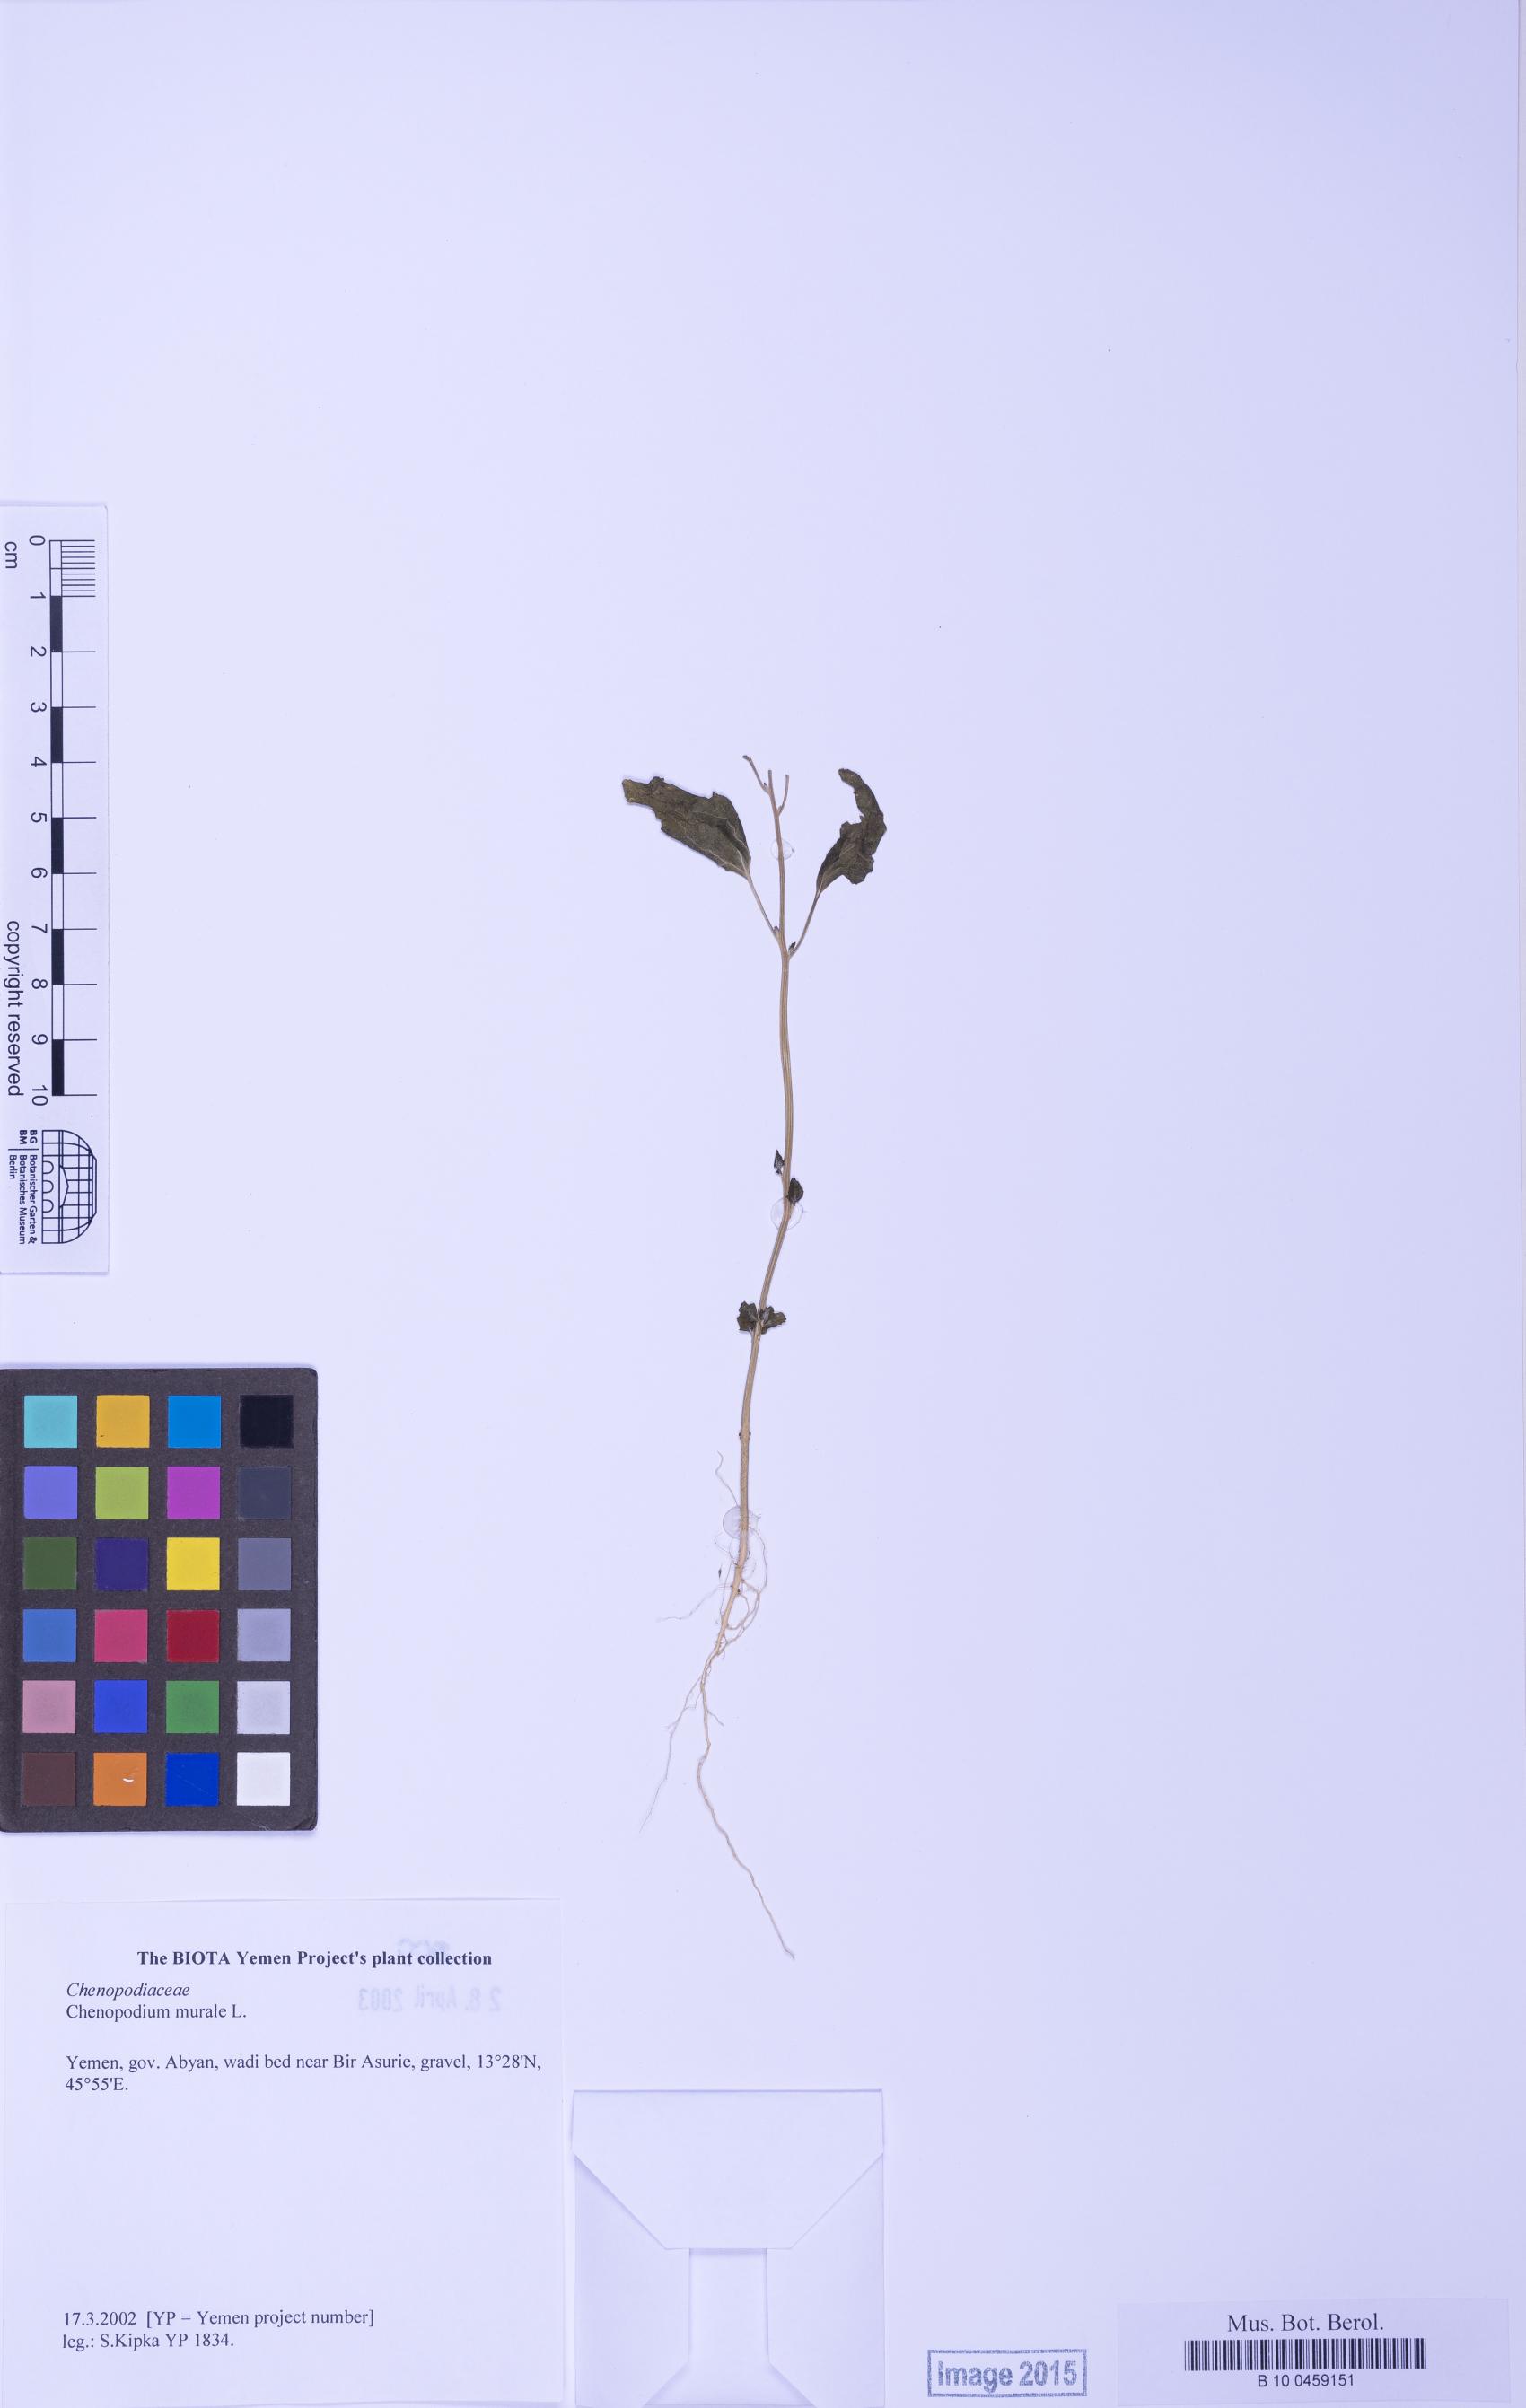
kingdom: Plantae
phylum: Tracheophyta
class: Magnoliopsida
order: Caryophyllales
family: Amaranthaceae
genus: Chenopodiastrum
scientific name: Chenopodiastrum murale
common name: Sowbane
